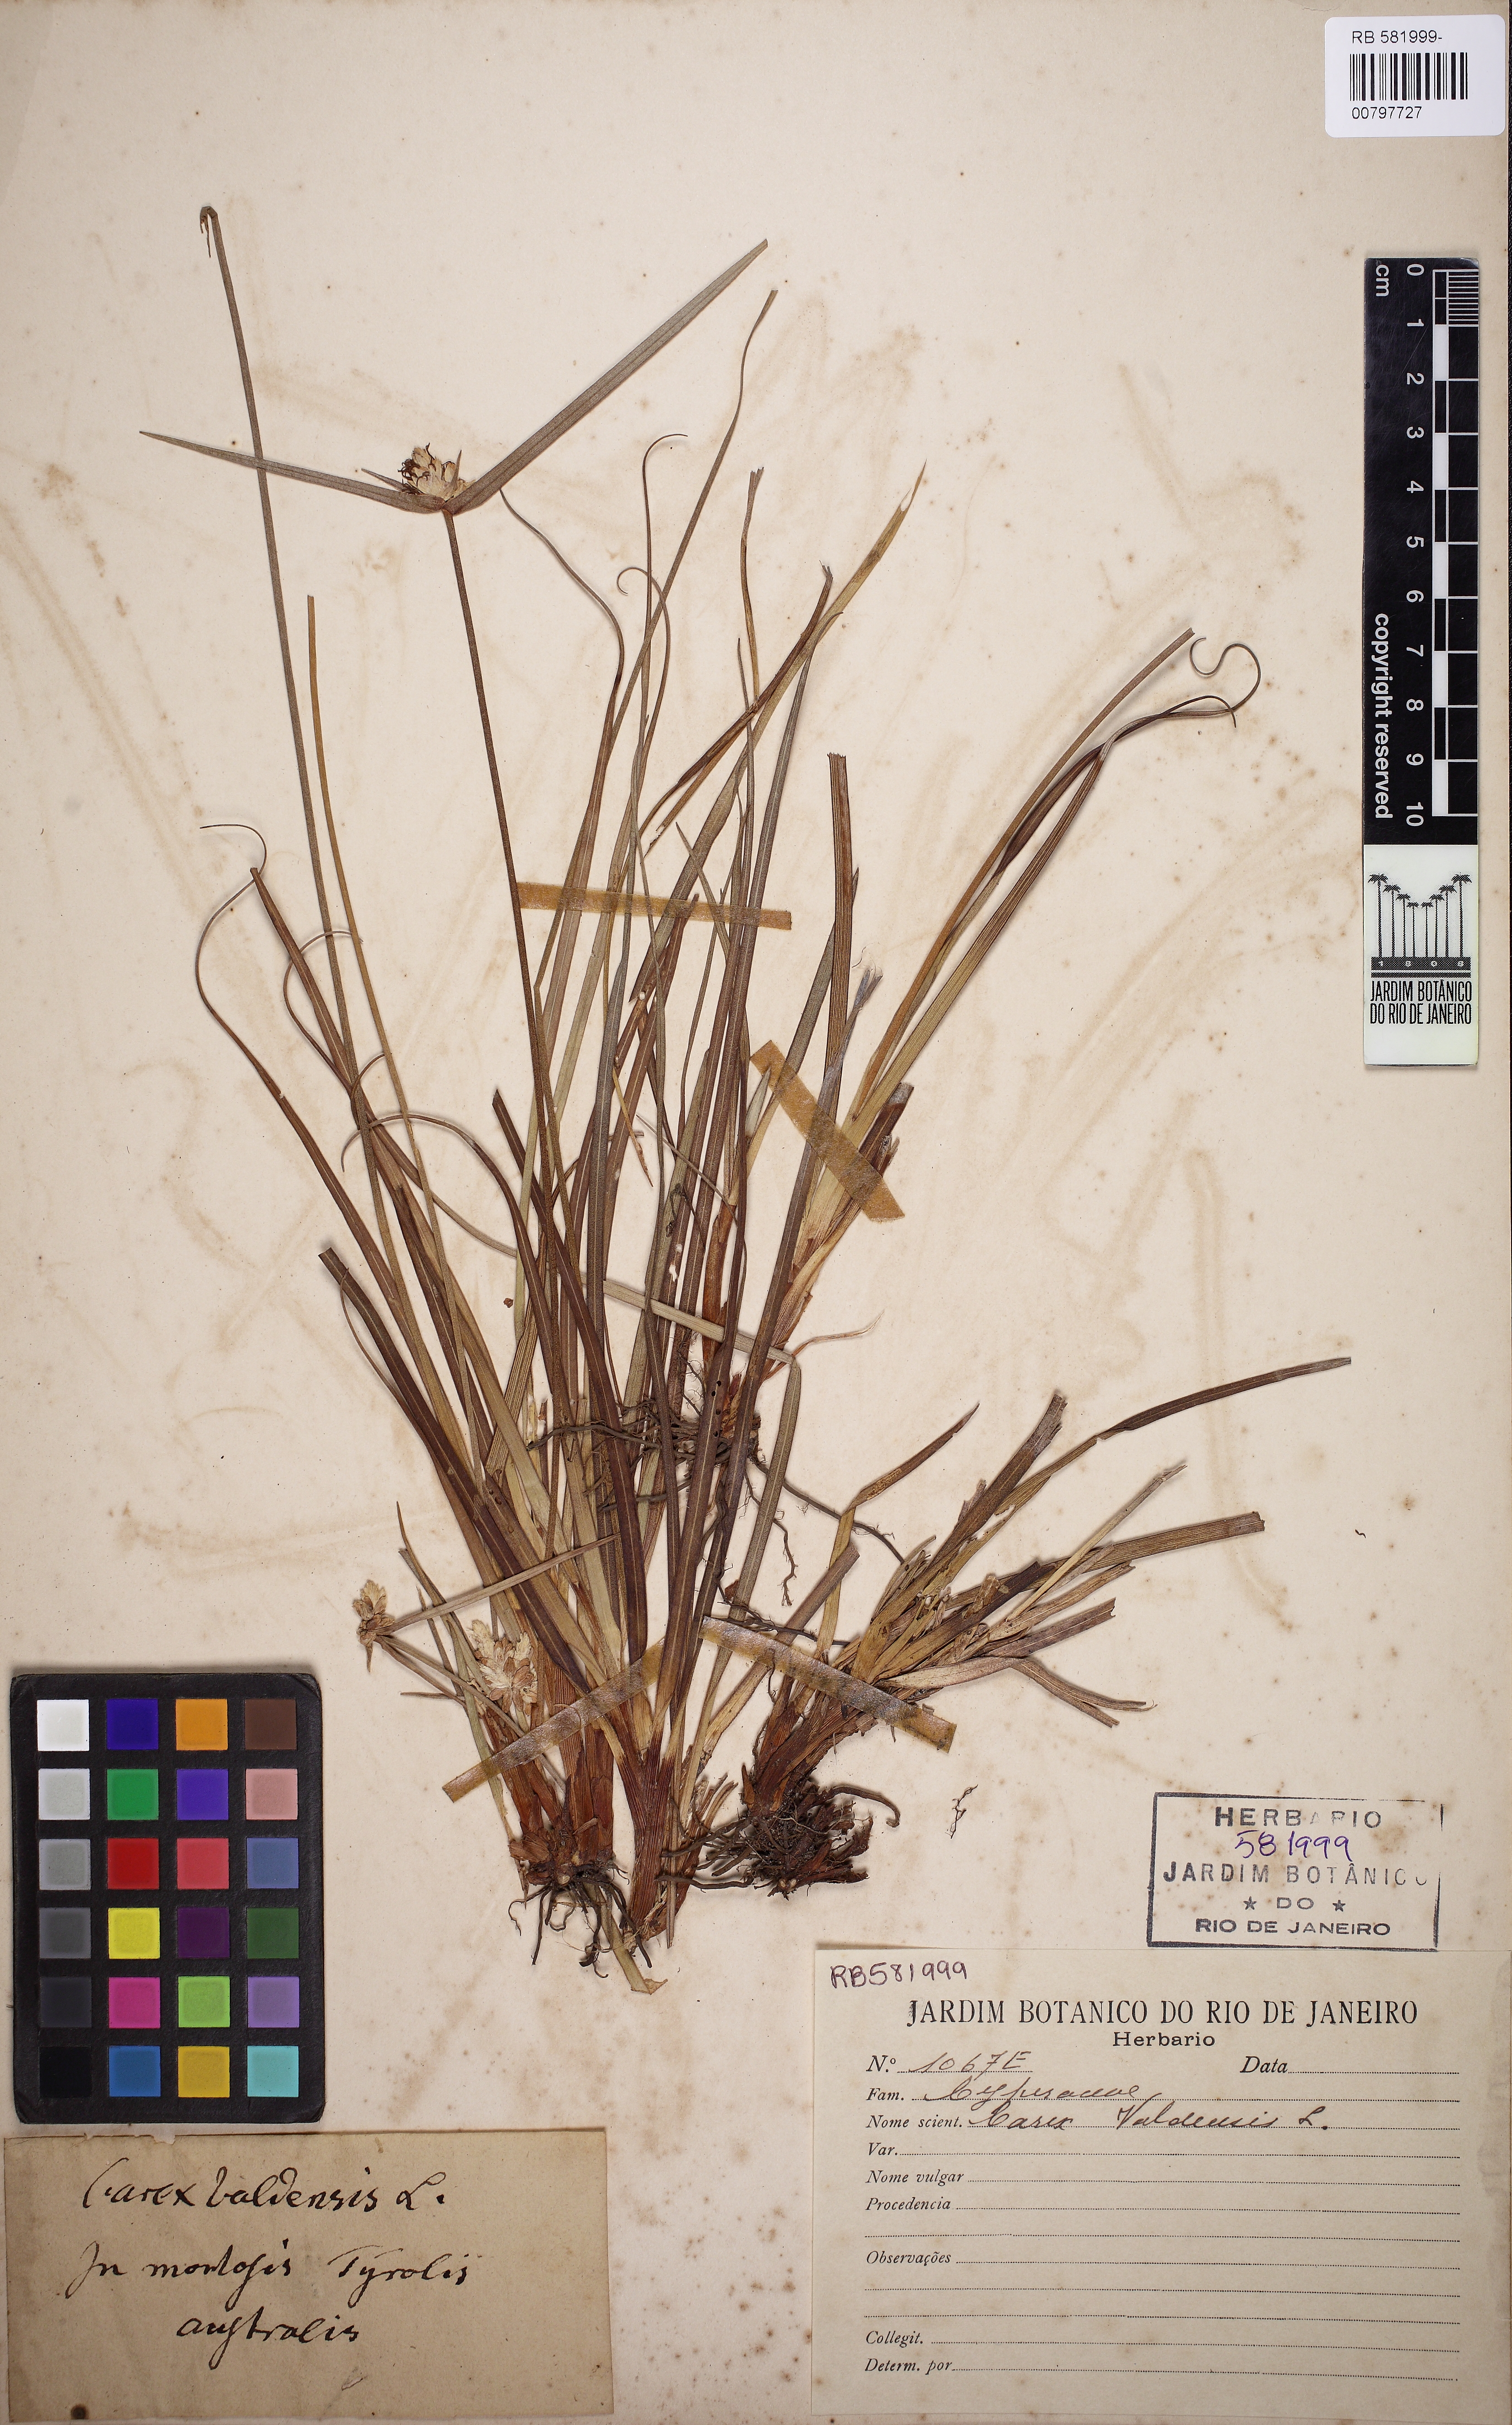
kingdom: Plantae
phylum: Tracheophyta
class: Liliopsida
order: Poales
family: Cyperaceae
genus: Carex
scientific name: Carex
